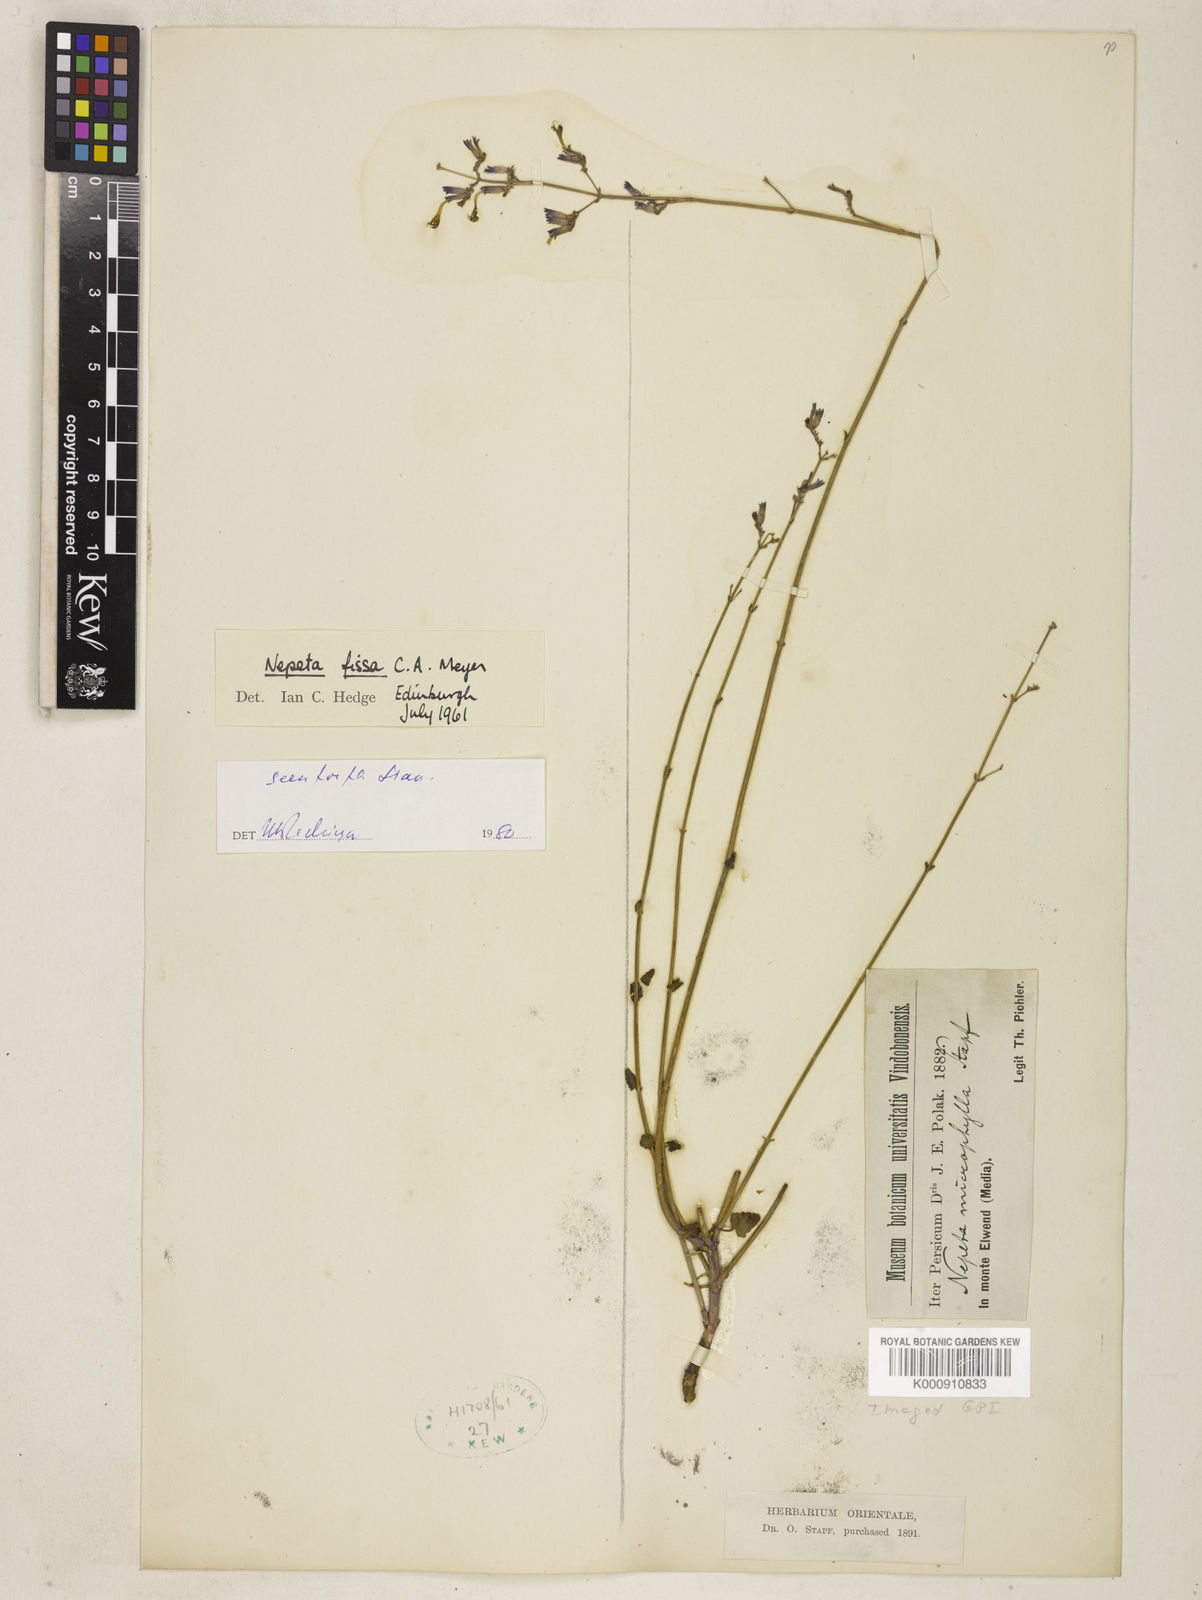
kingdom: Plantae
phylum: Tracheophyta
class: Magnoliopsida
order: Lamiales
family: Lamiaceae
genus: Nepeta
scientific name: Nepeta teucriifolia
